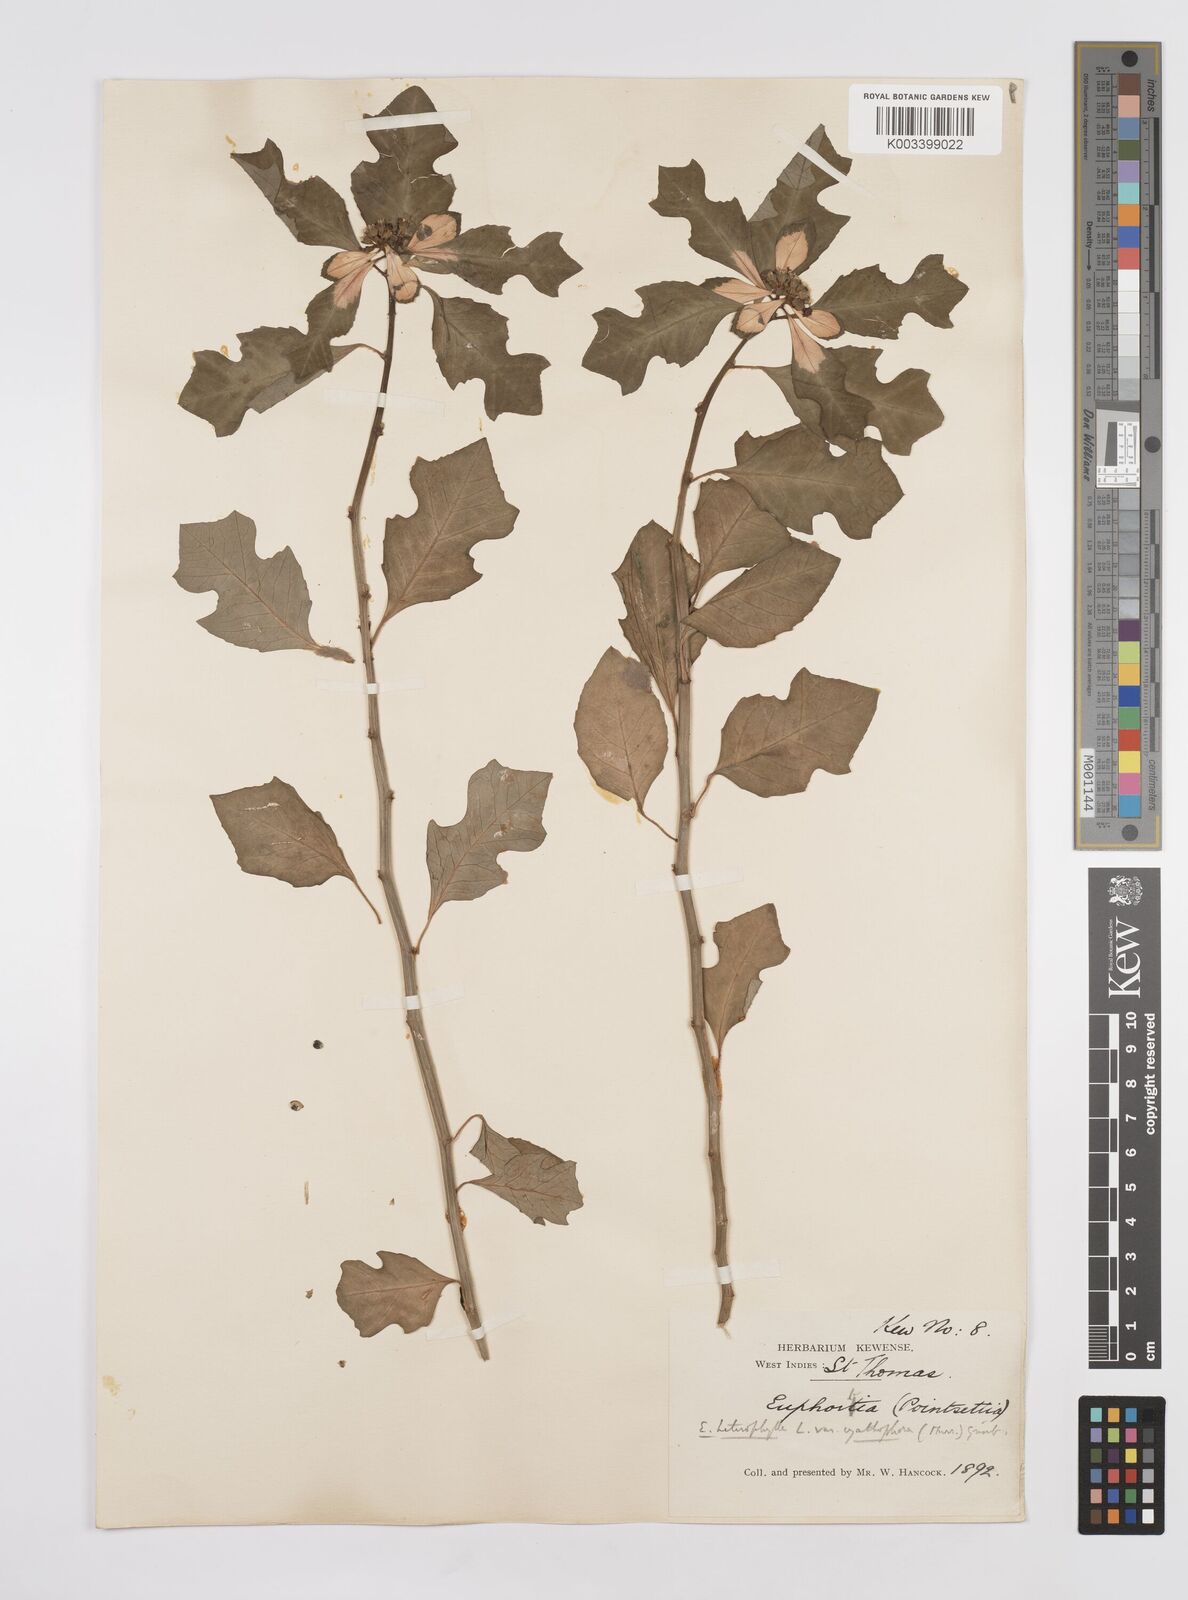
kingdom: Plantae
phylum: Tracheophyta
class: Magnoliopsida
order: Malpighiales
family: Euphorbiaceae
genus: Euphorbia
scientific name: Euphorbia heterophylla
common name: Mexican fireplant
